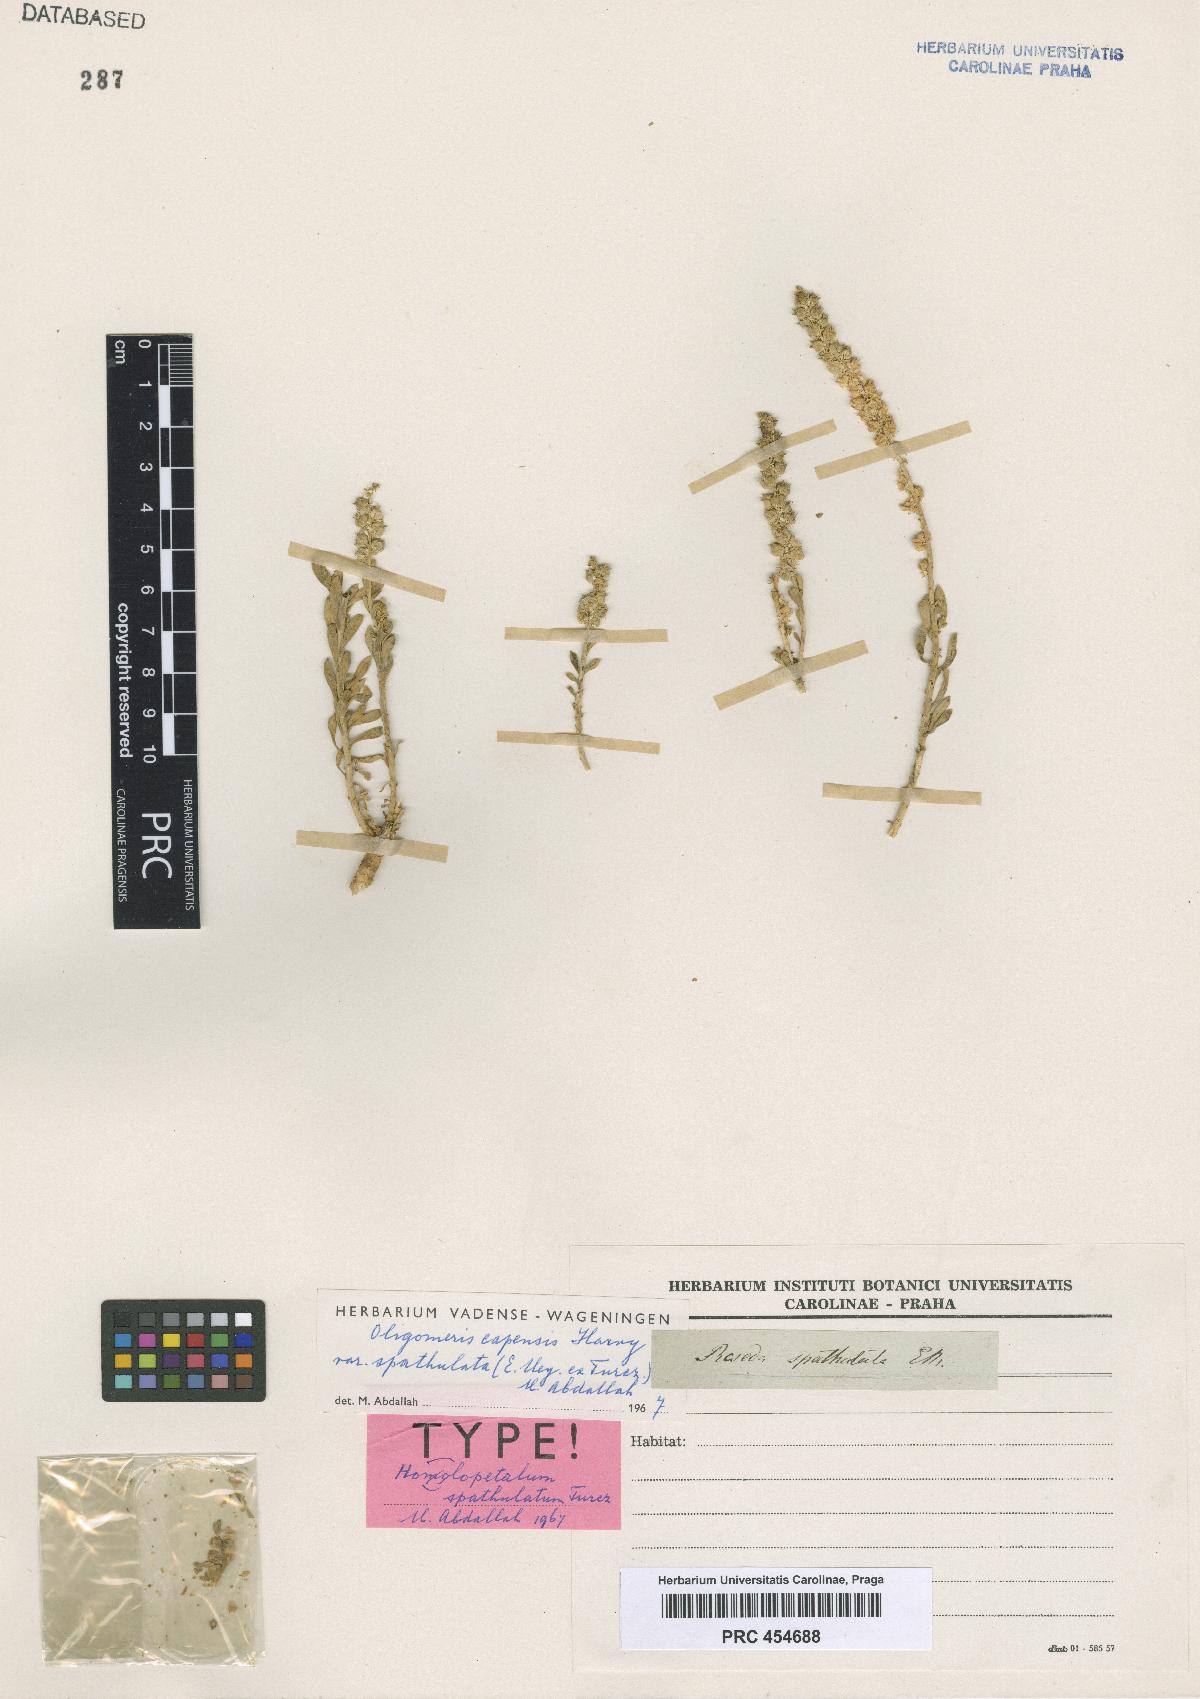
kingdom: Plantae
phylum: Tracheophyta
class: Magnoliopsida
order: Brassicales
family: Resedaceae
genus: Oligomeris
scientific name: Oligomeris dipetala
